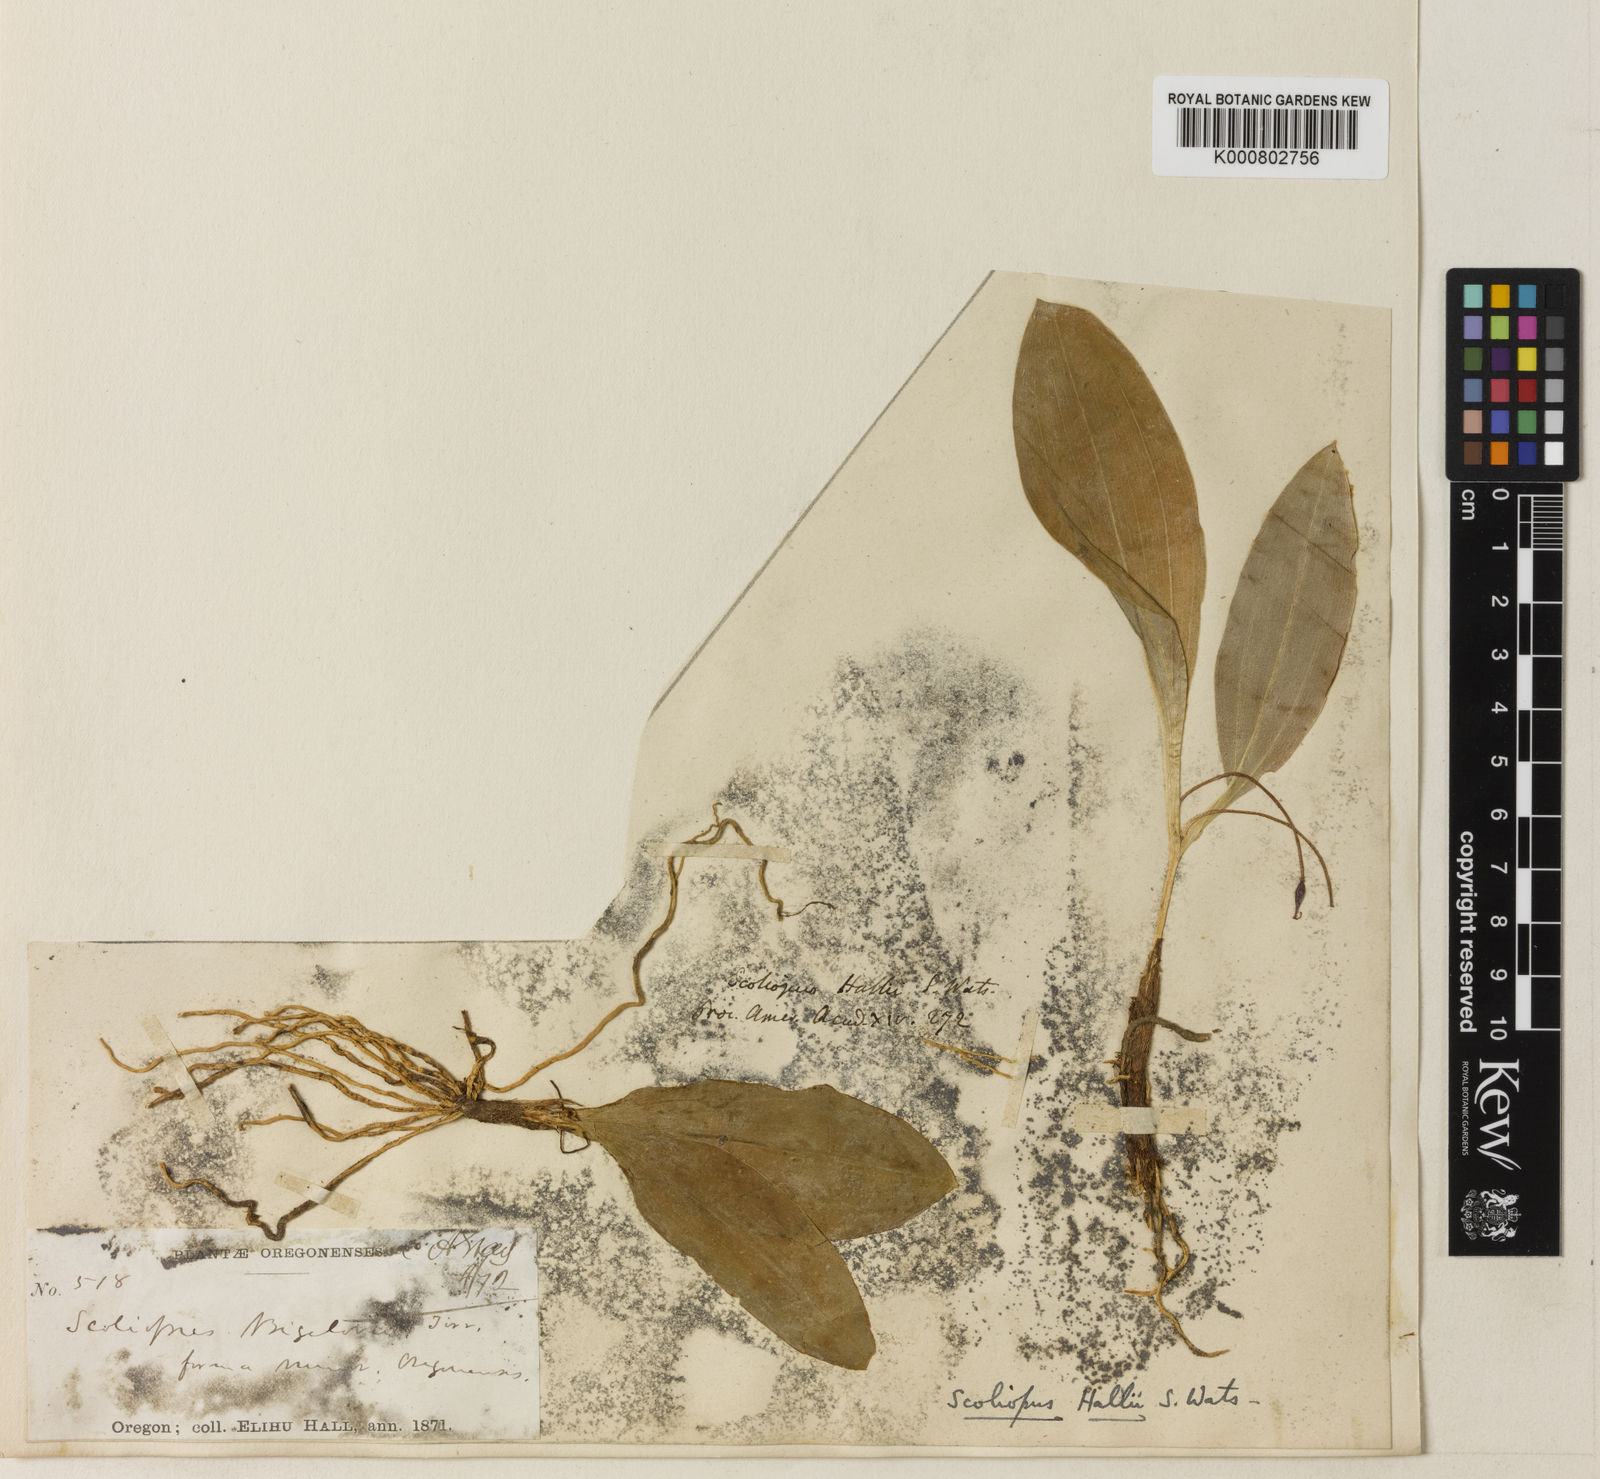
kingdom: Plantae
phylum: Tracheophyta
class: Liliopsida
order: Liliales
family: Liliaceae
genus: Scoliopus
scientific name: Scoliopus hallii
